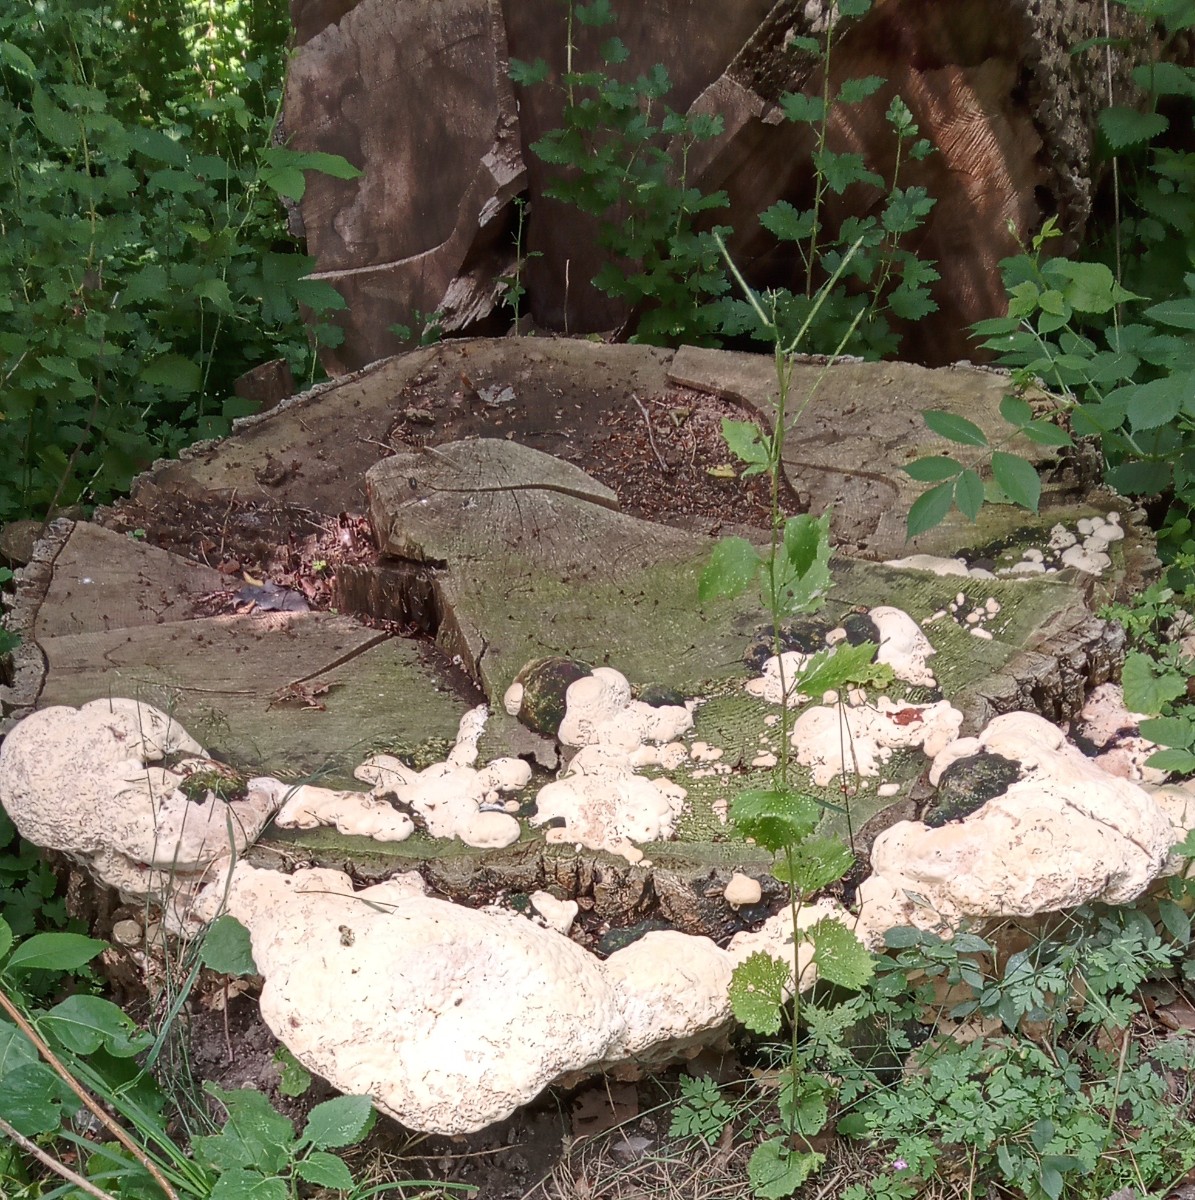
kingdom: Fungi
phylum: Basidiomycota
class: Agaricomycetes
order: Polyporales
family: Polyporaceae
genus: Vanderbylia
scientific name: Vanderbylia fraxinea
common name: stor kanelporesvamp
